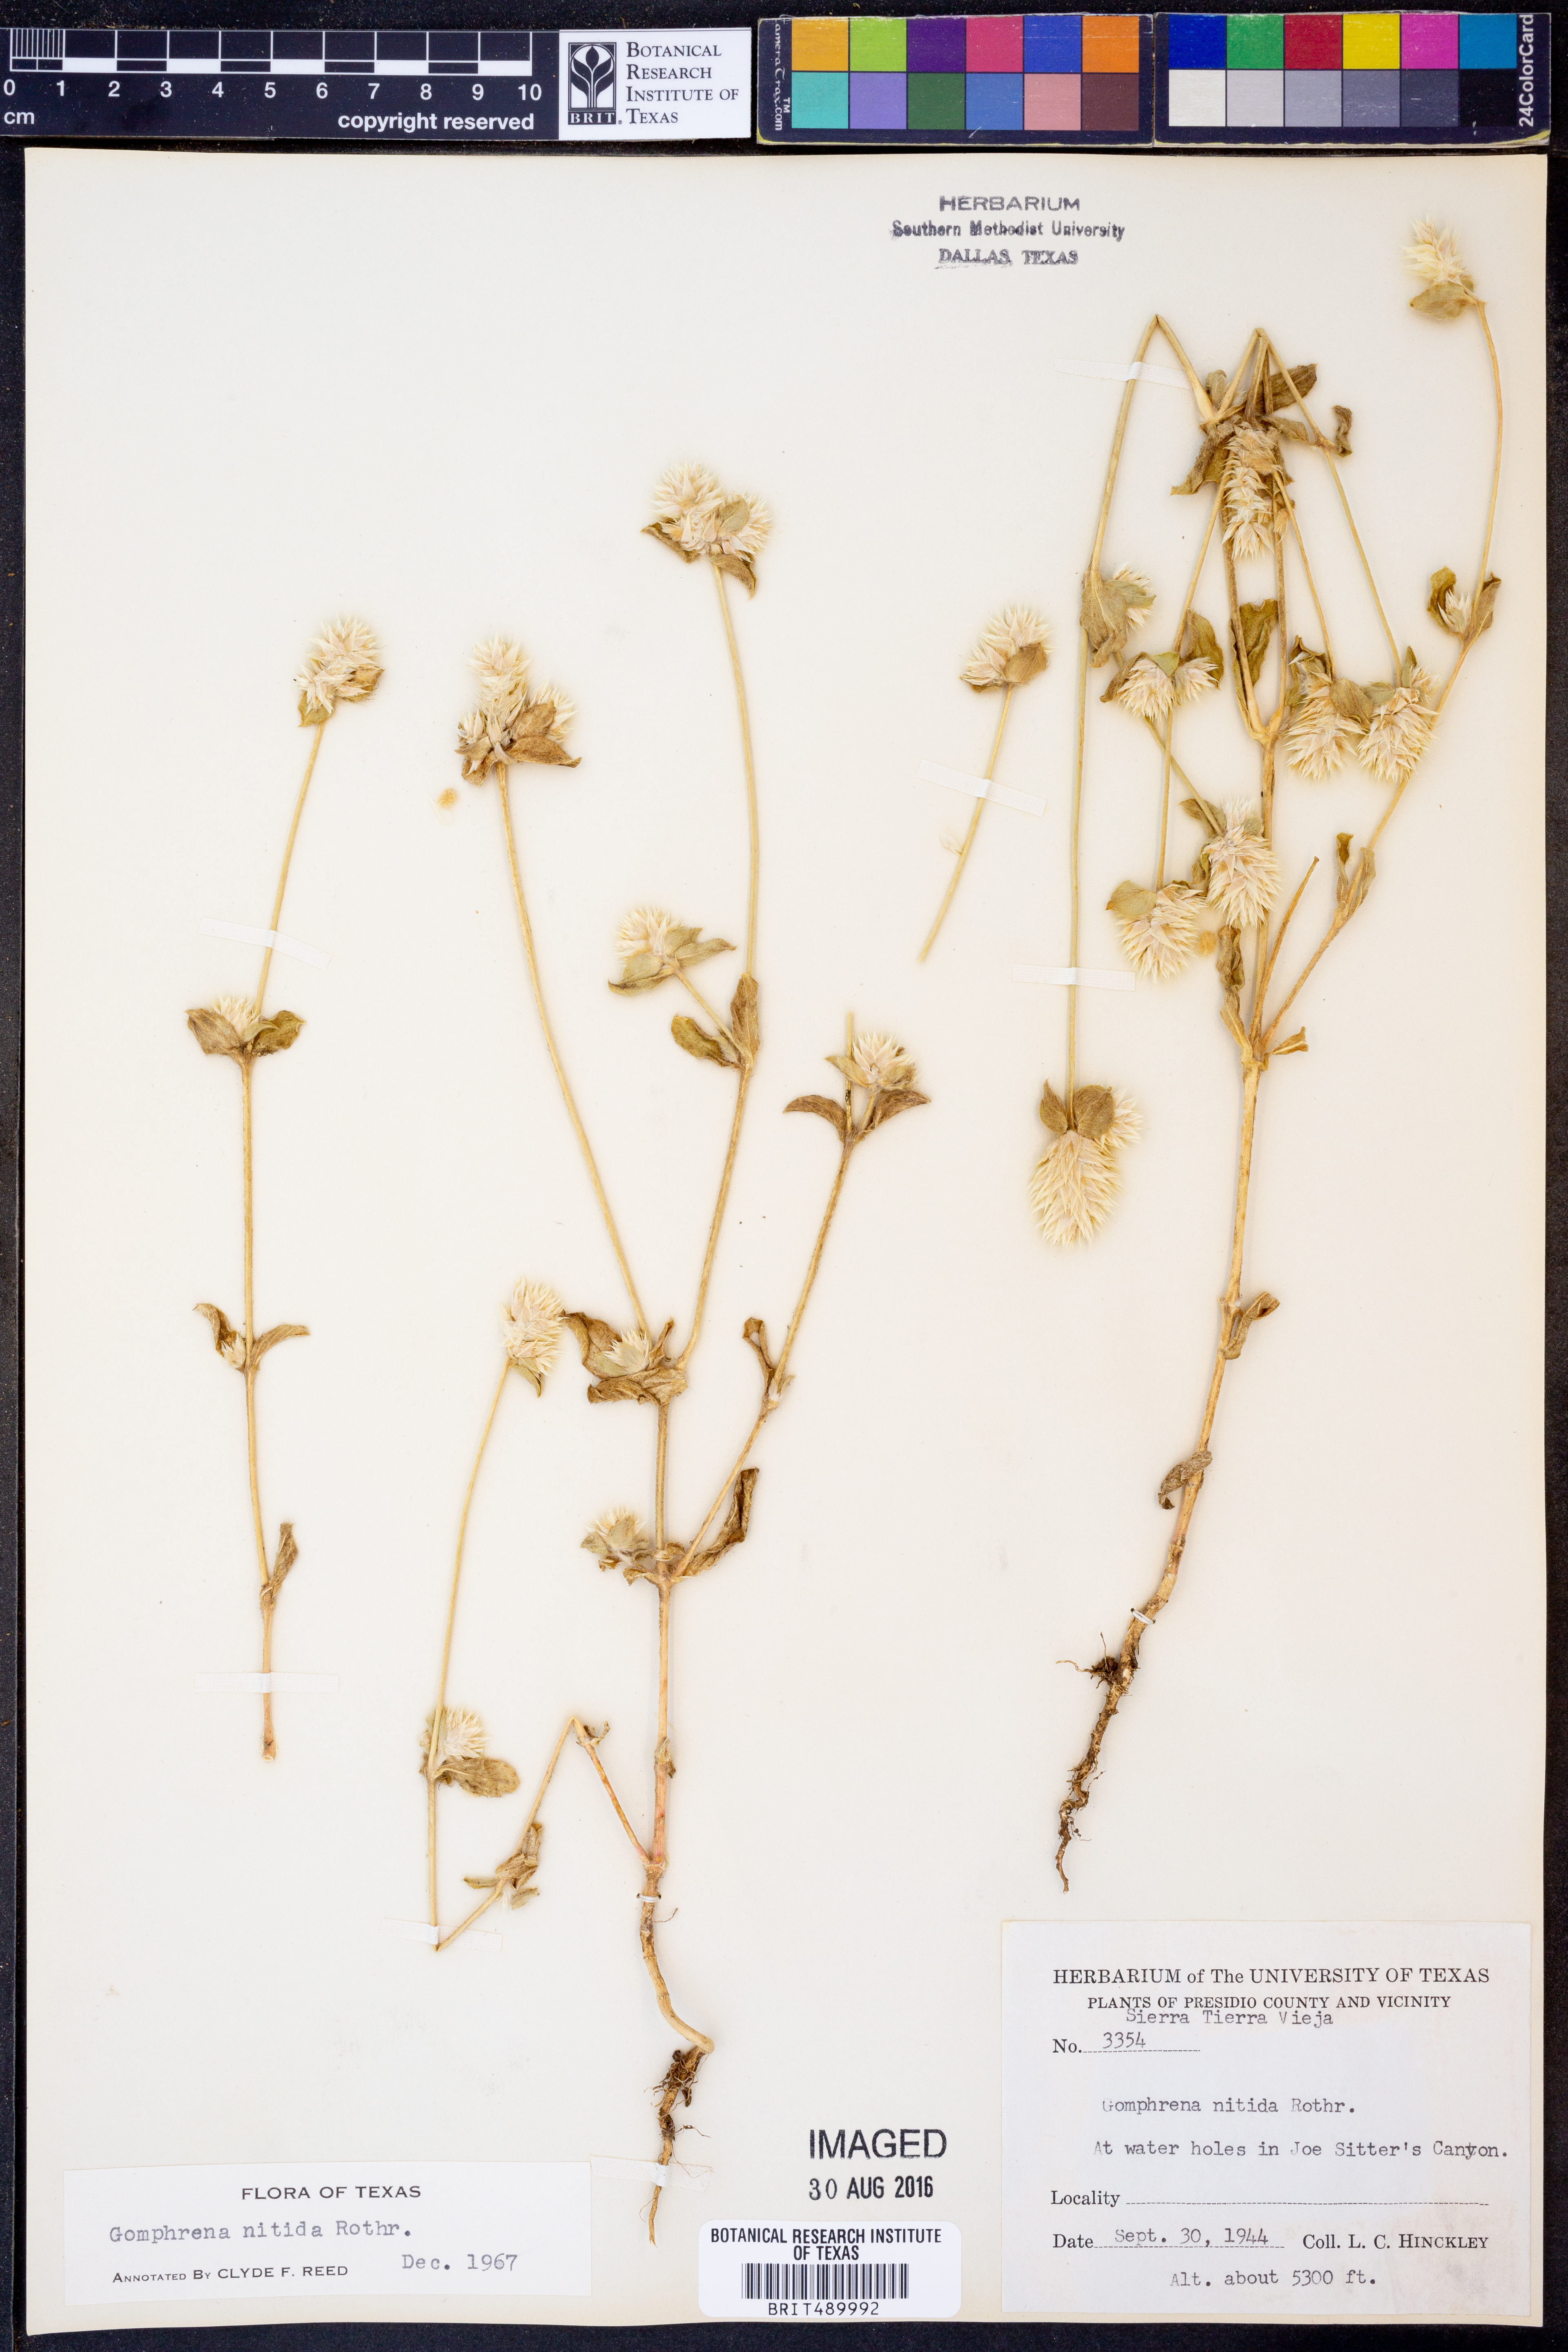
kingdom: Plantae
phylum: Tracheophyta
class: Magnoliopsida
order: Caryophyllales
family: Amaranthaceae
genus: Gomphrena
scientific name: Gomphrena nitida
